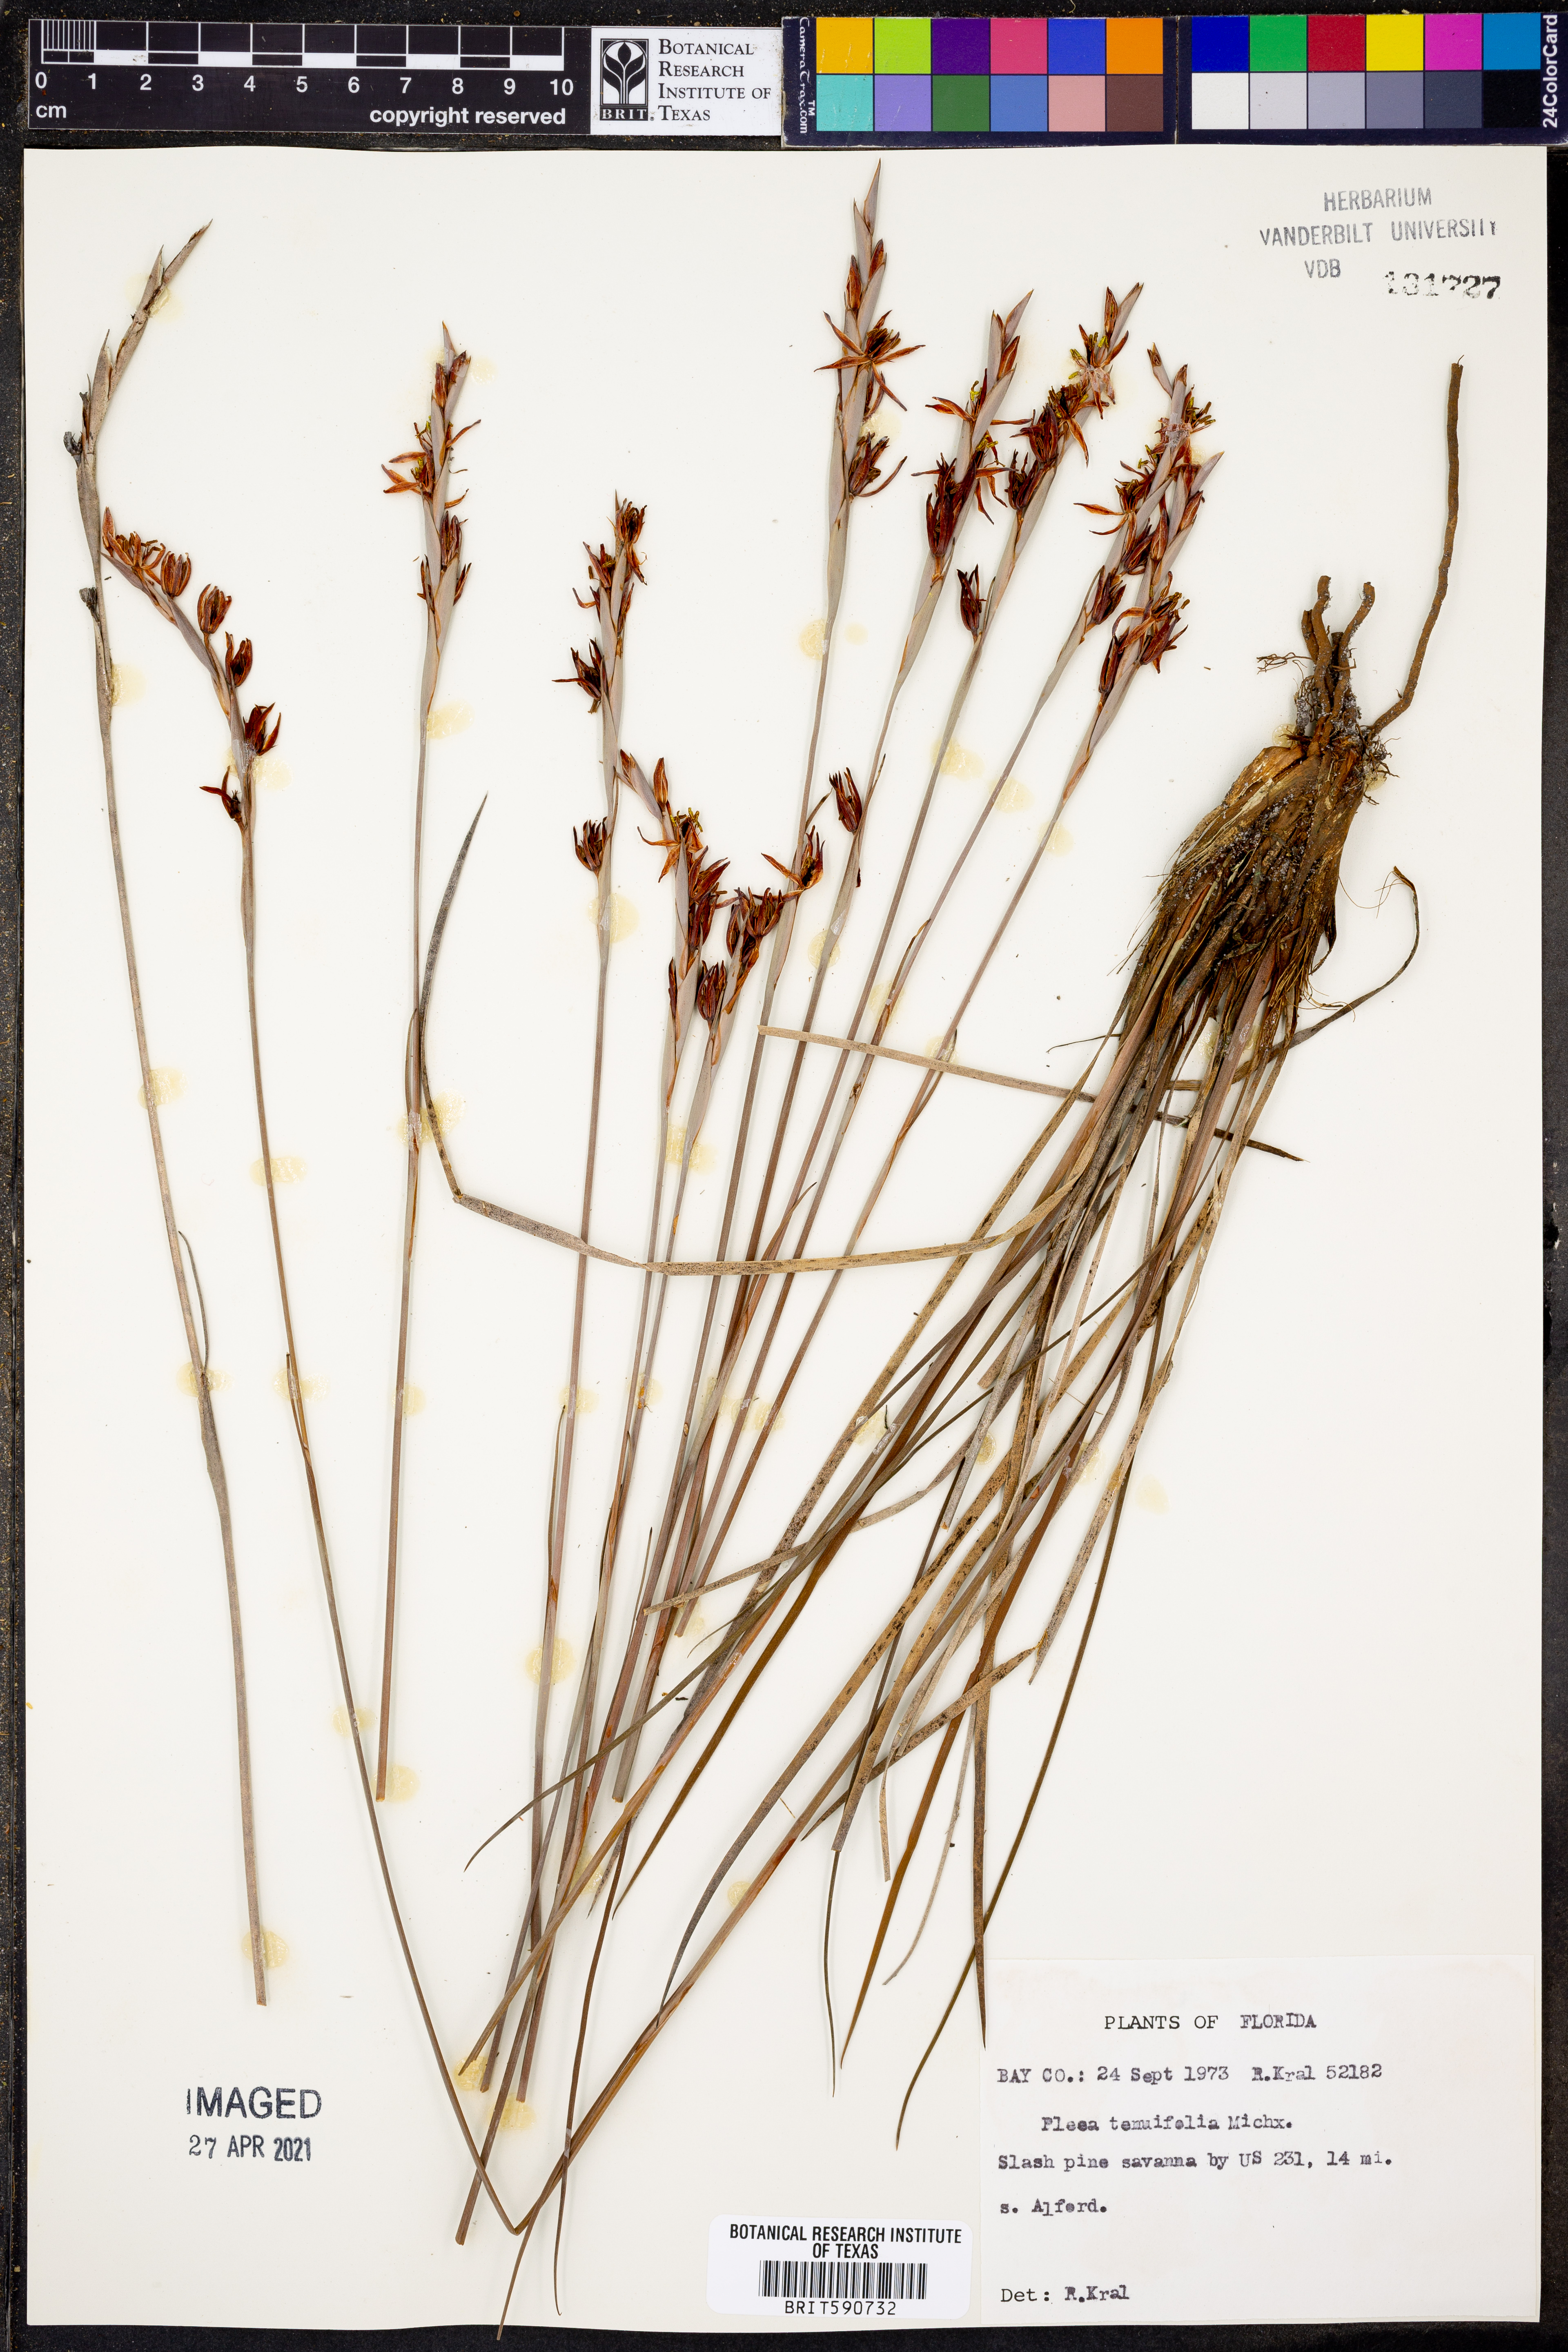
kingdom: Plantae
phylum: Tracheophyta
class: Liliopsida
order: Alismatales
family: Tofieldiaceae
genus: Pleea
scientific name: Pleea tenuifolia
